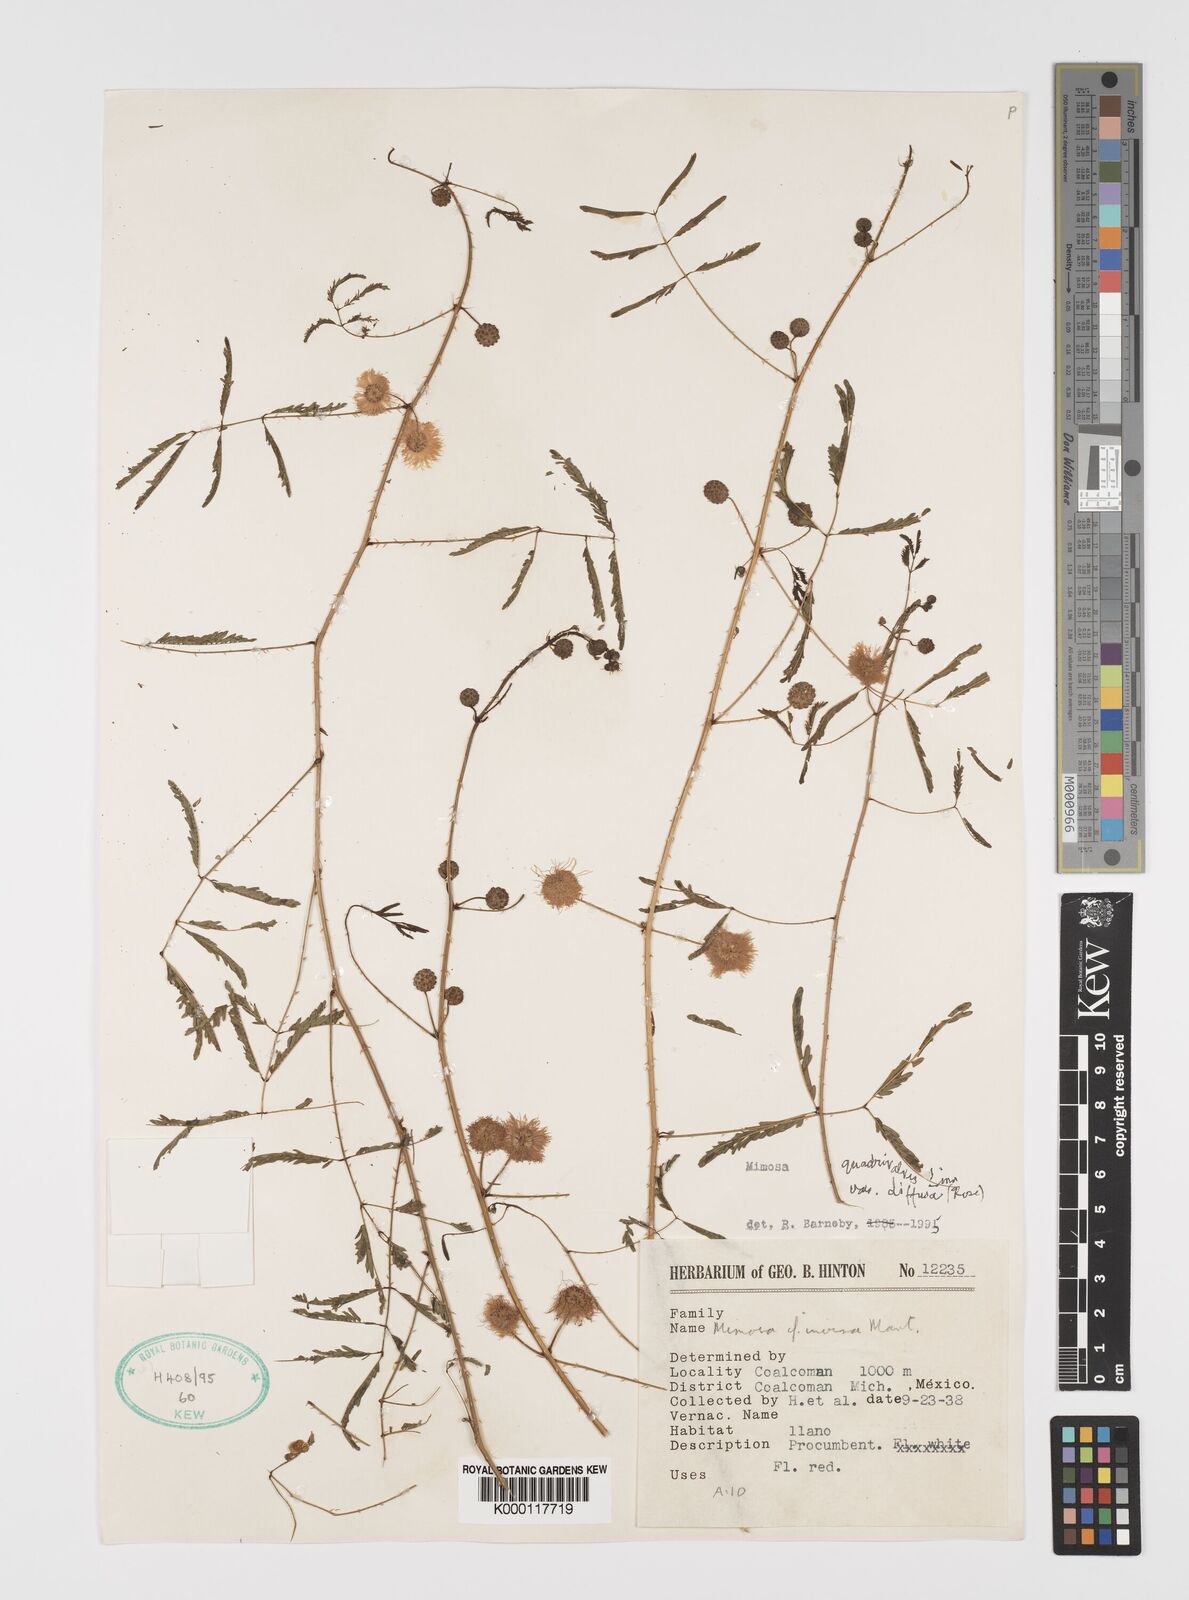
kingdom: Plantae
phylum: Tracheophyta
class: Magnoliopsida
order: Fabales
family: Fabaceae
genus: Mimosa
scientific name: Mimosa quadrivalvis
